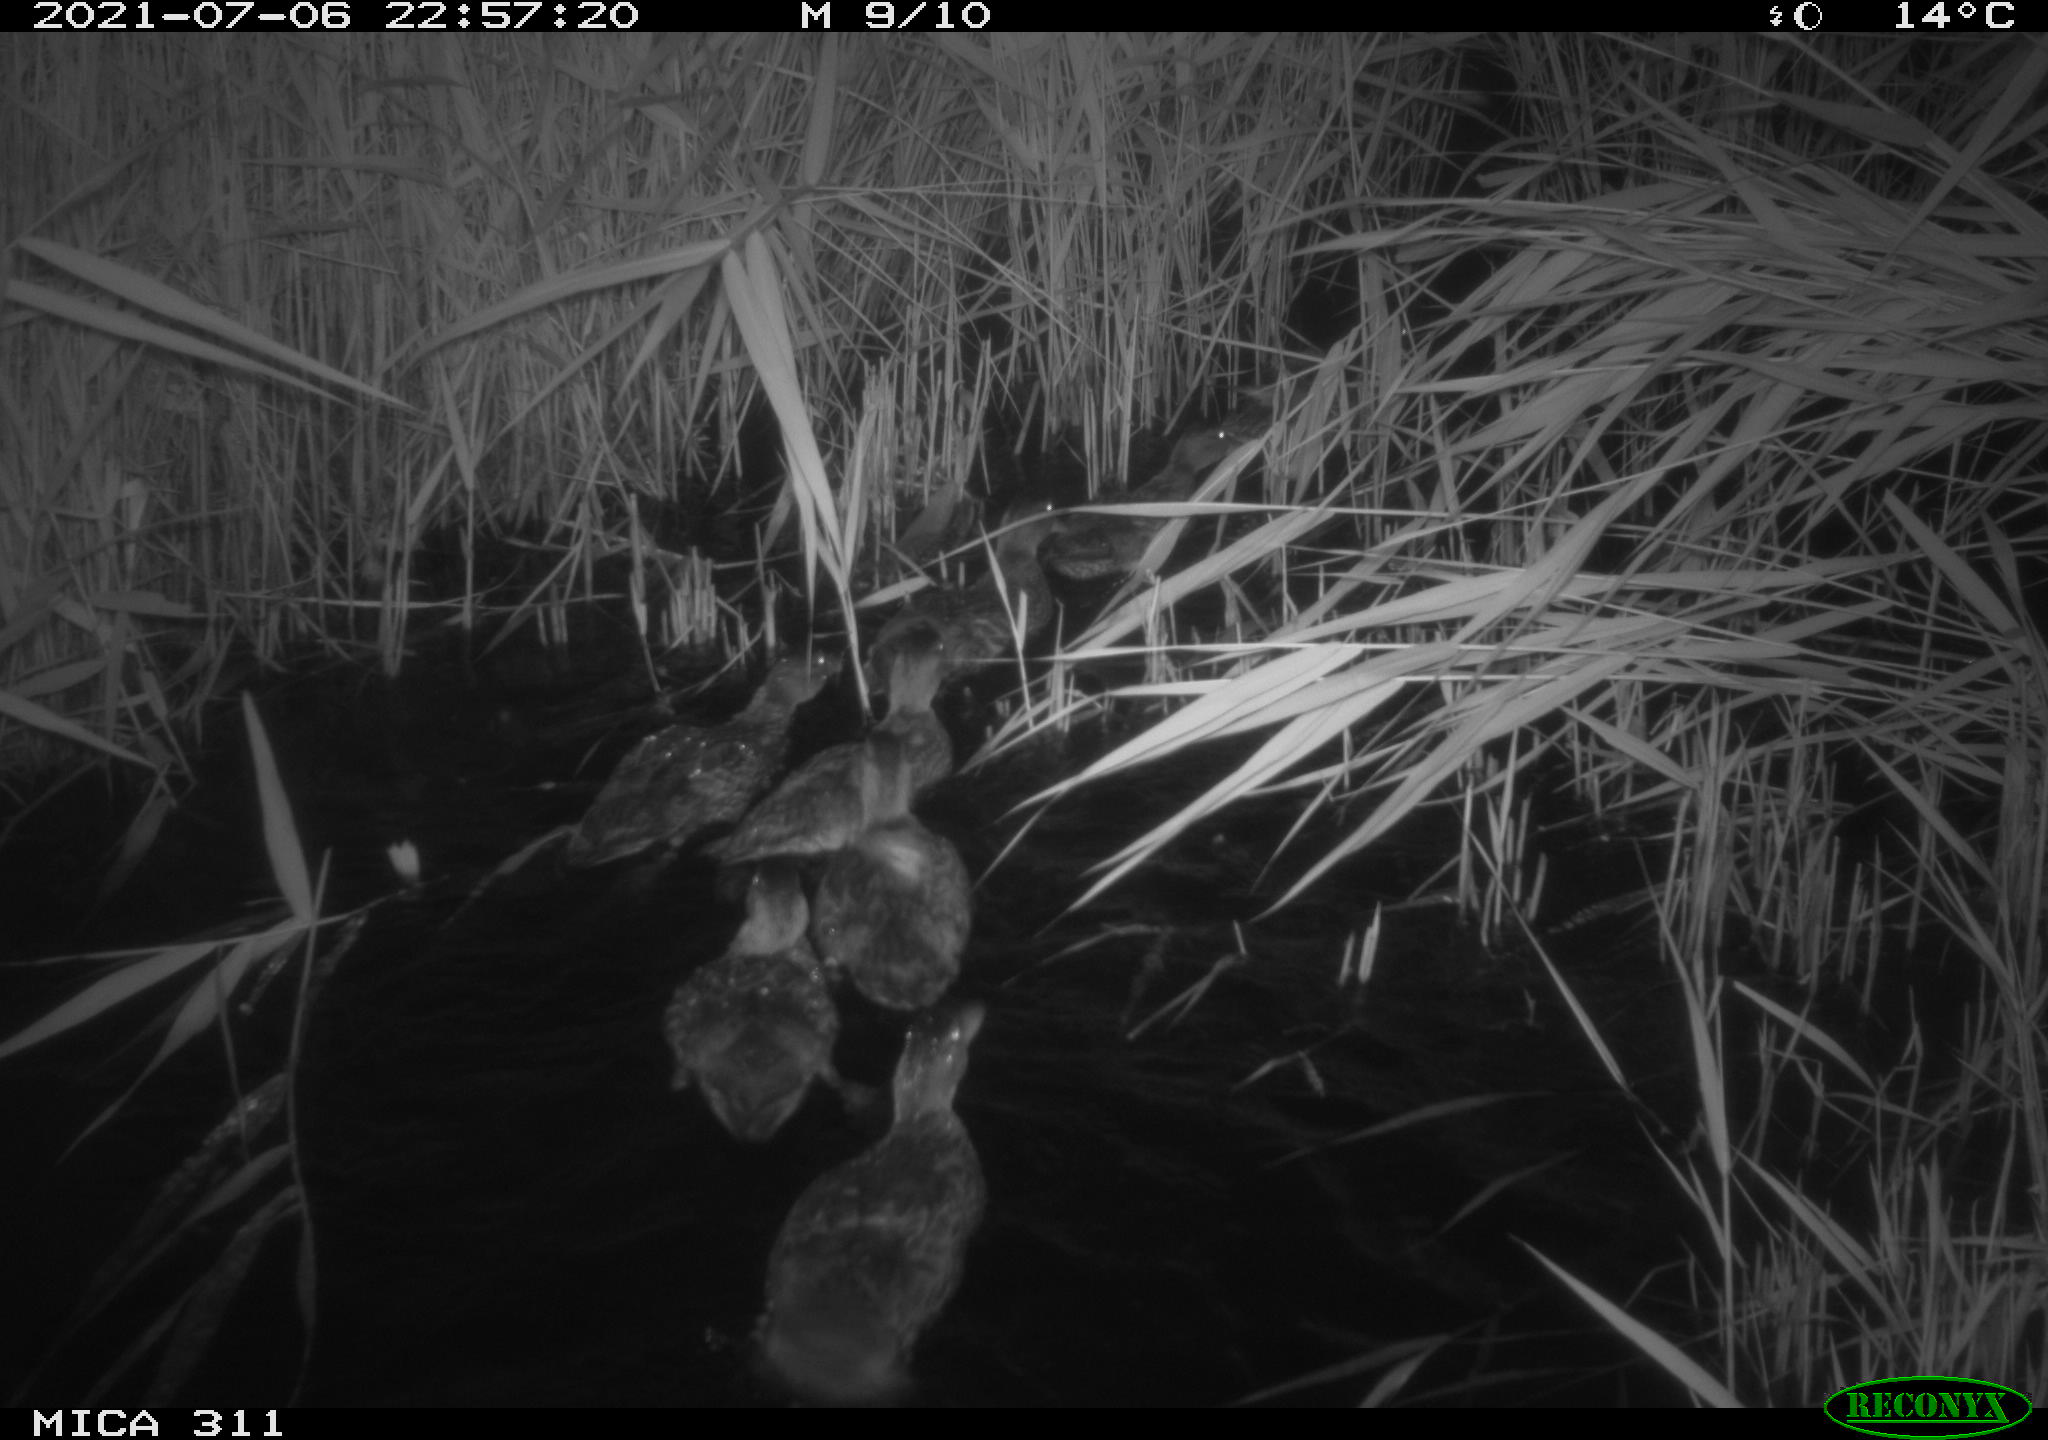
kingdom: Animalia
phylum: Chordata
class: Aves
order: Anseriformes
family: Anatidae
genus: Anas
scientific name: Anas
